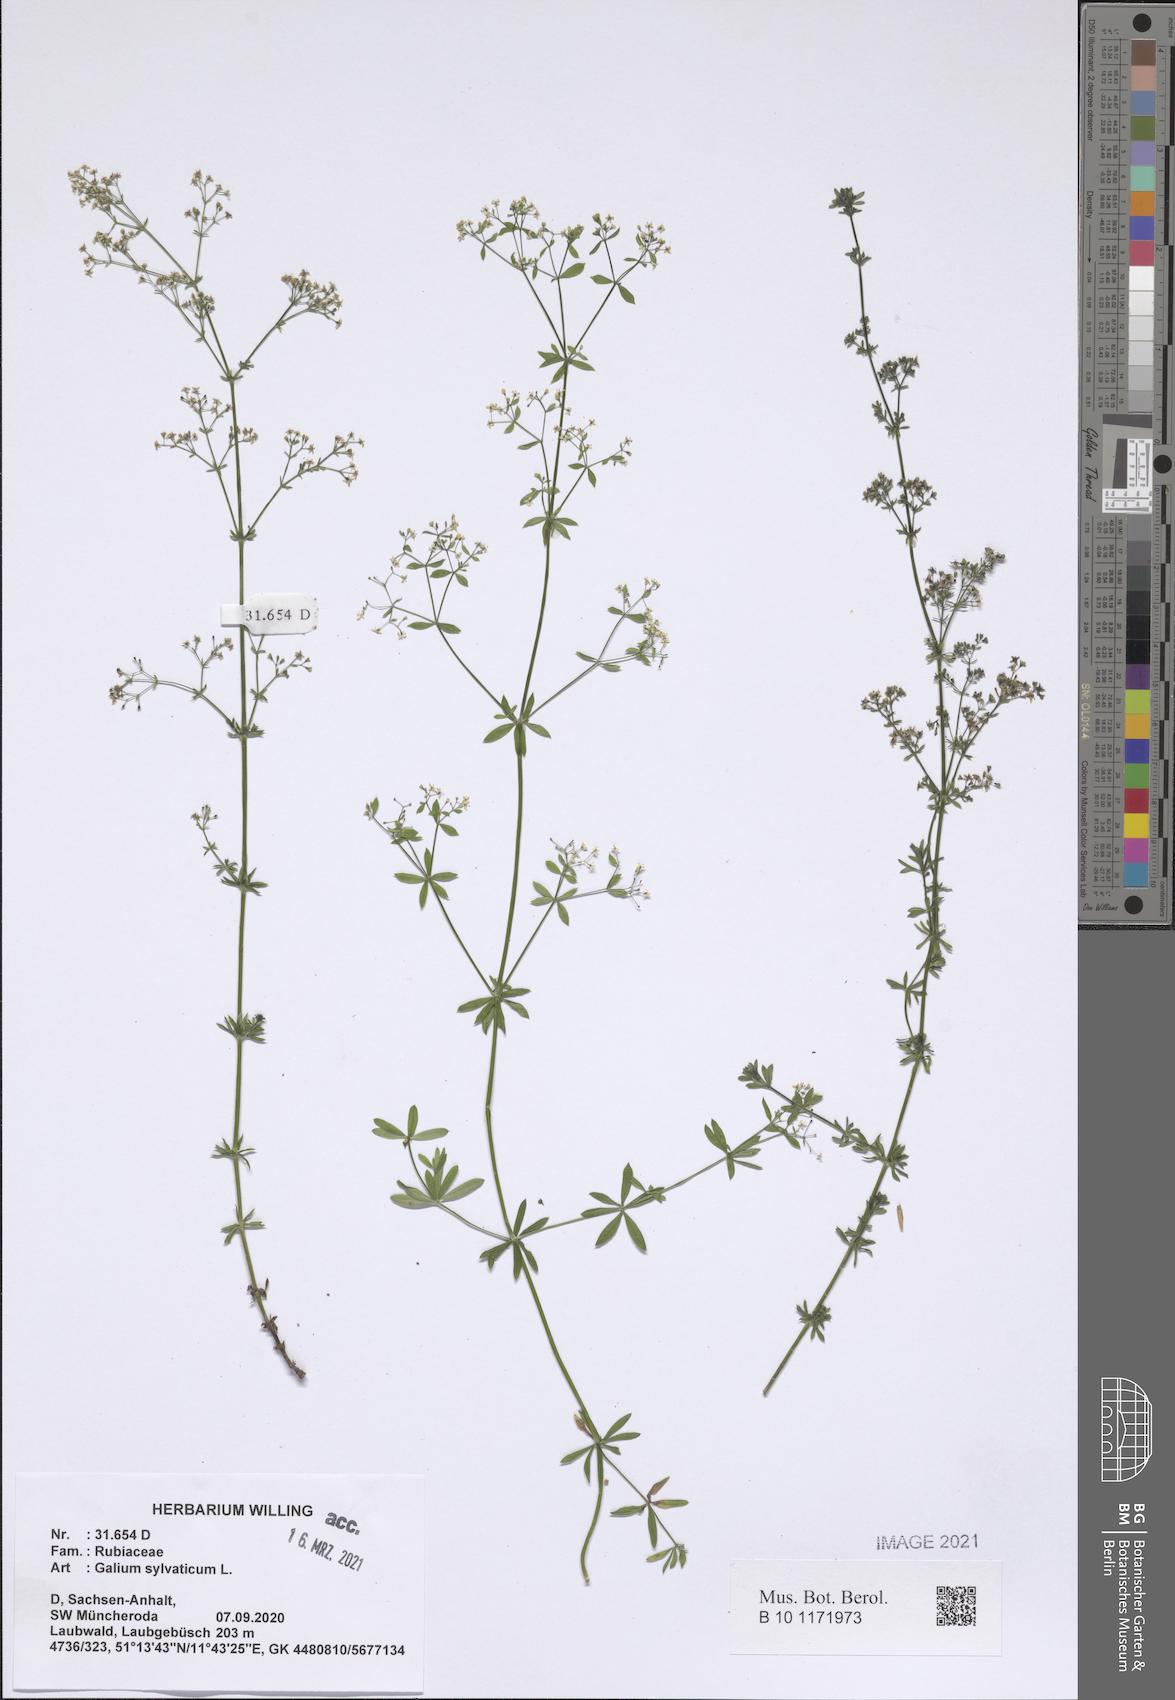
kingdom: Plantae
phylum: Tracheophyta
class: Magnoliopsida
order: Gentianales
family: Rubiaceae
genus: Galium
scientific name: Galium sylvaticum
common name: Wood bedstraw
